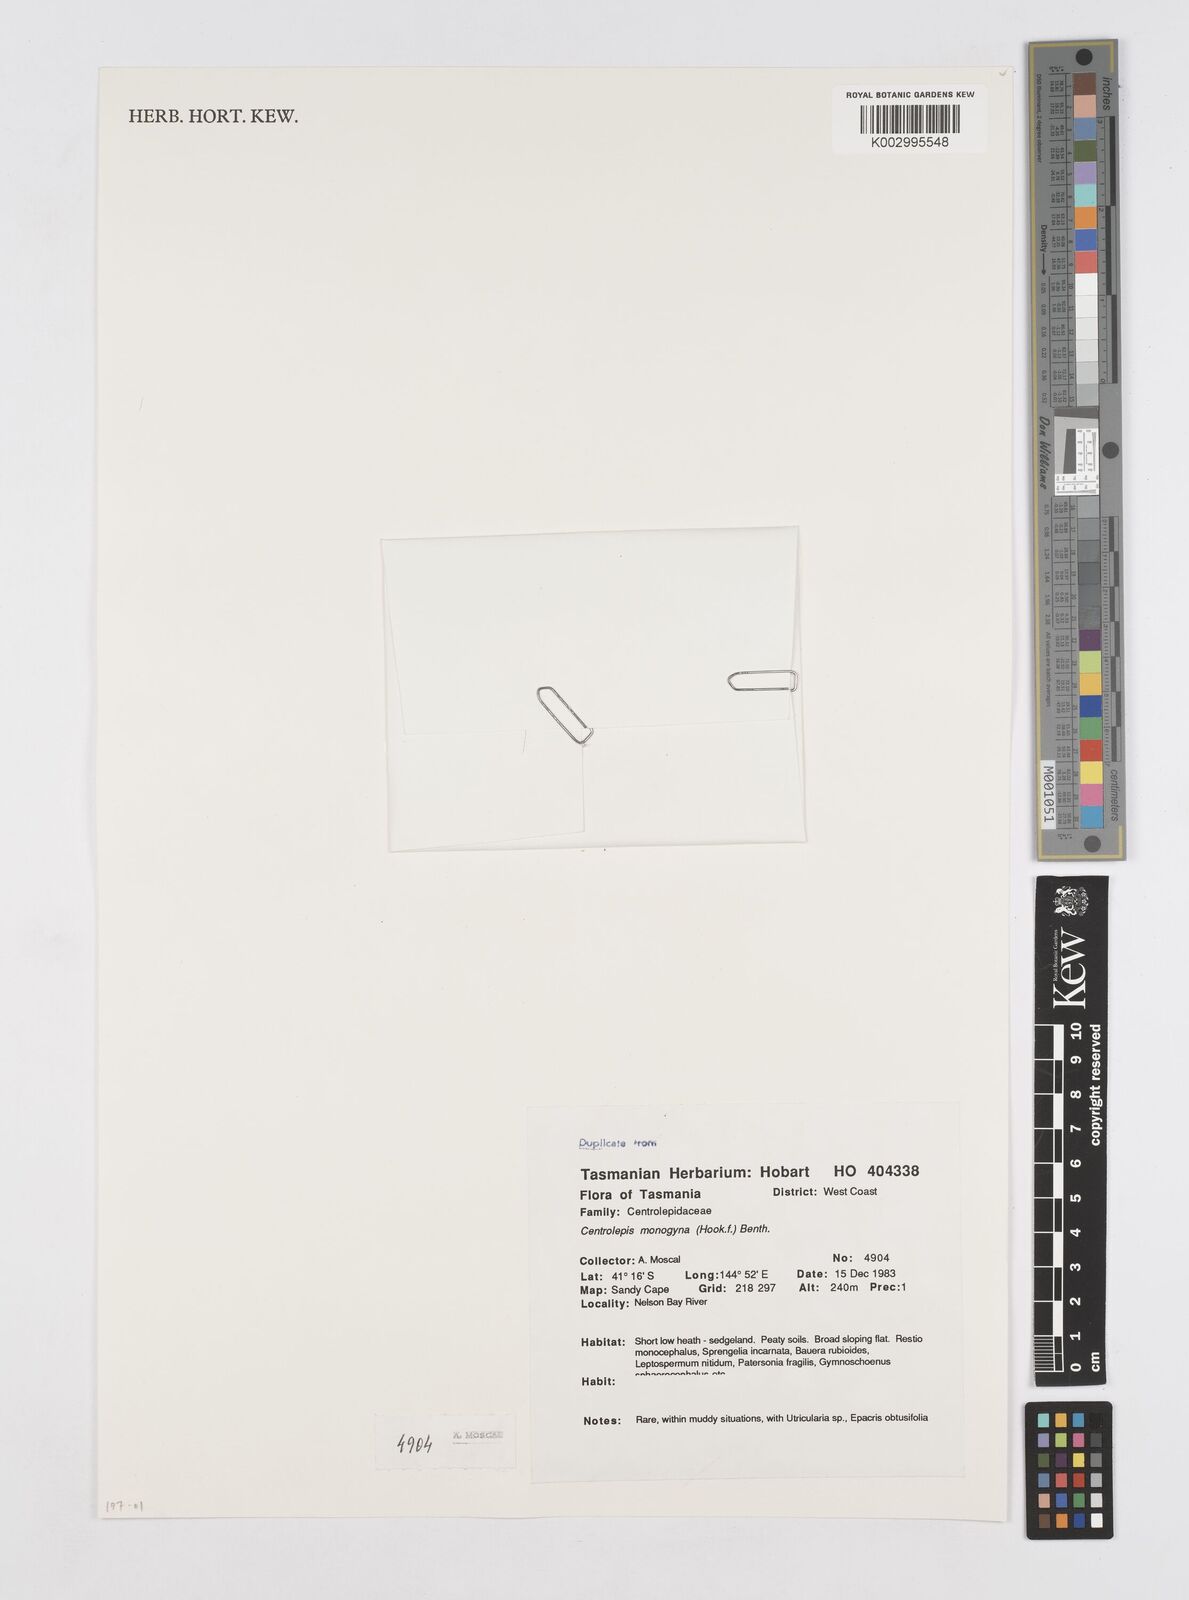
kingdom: Plantae
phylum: Tracheophyta
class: Liliopsida
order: Poales
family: Restionaceae
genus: Centrolepis
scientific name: Centrolepis monogyna
